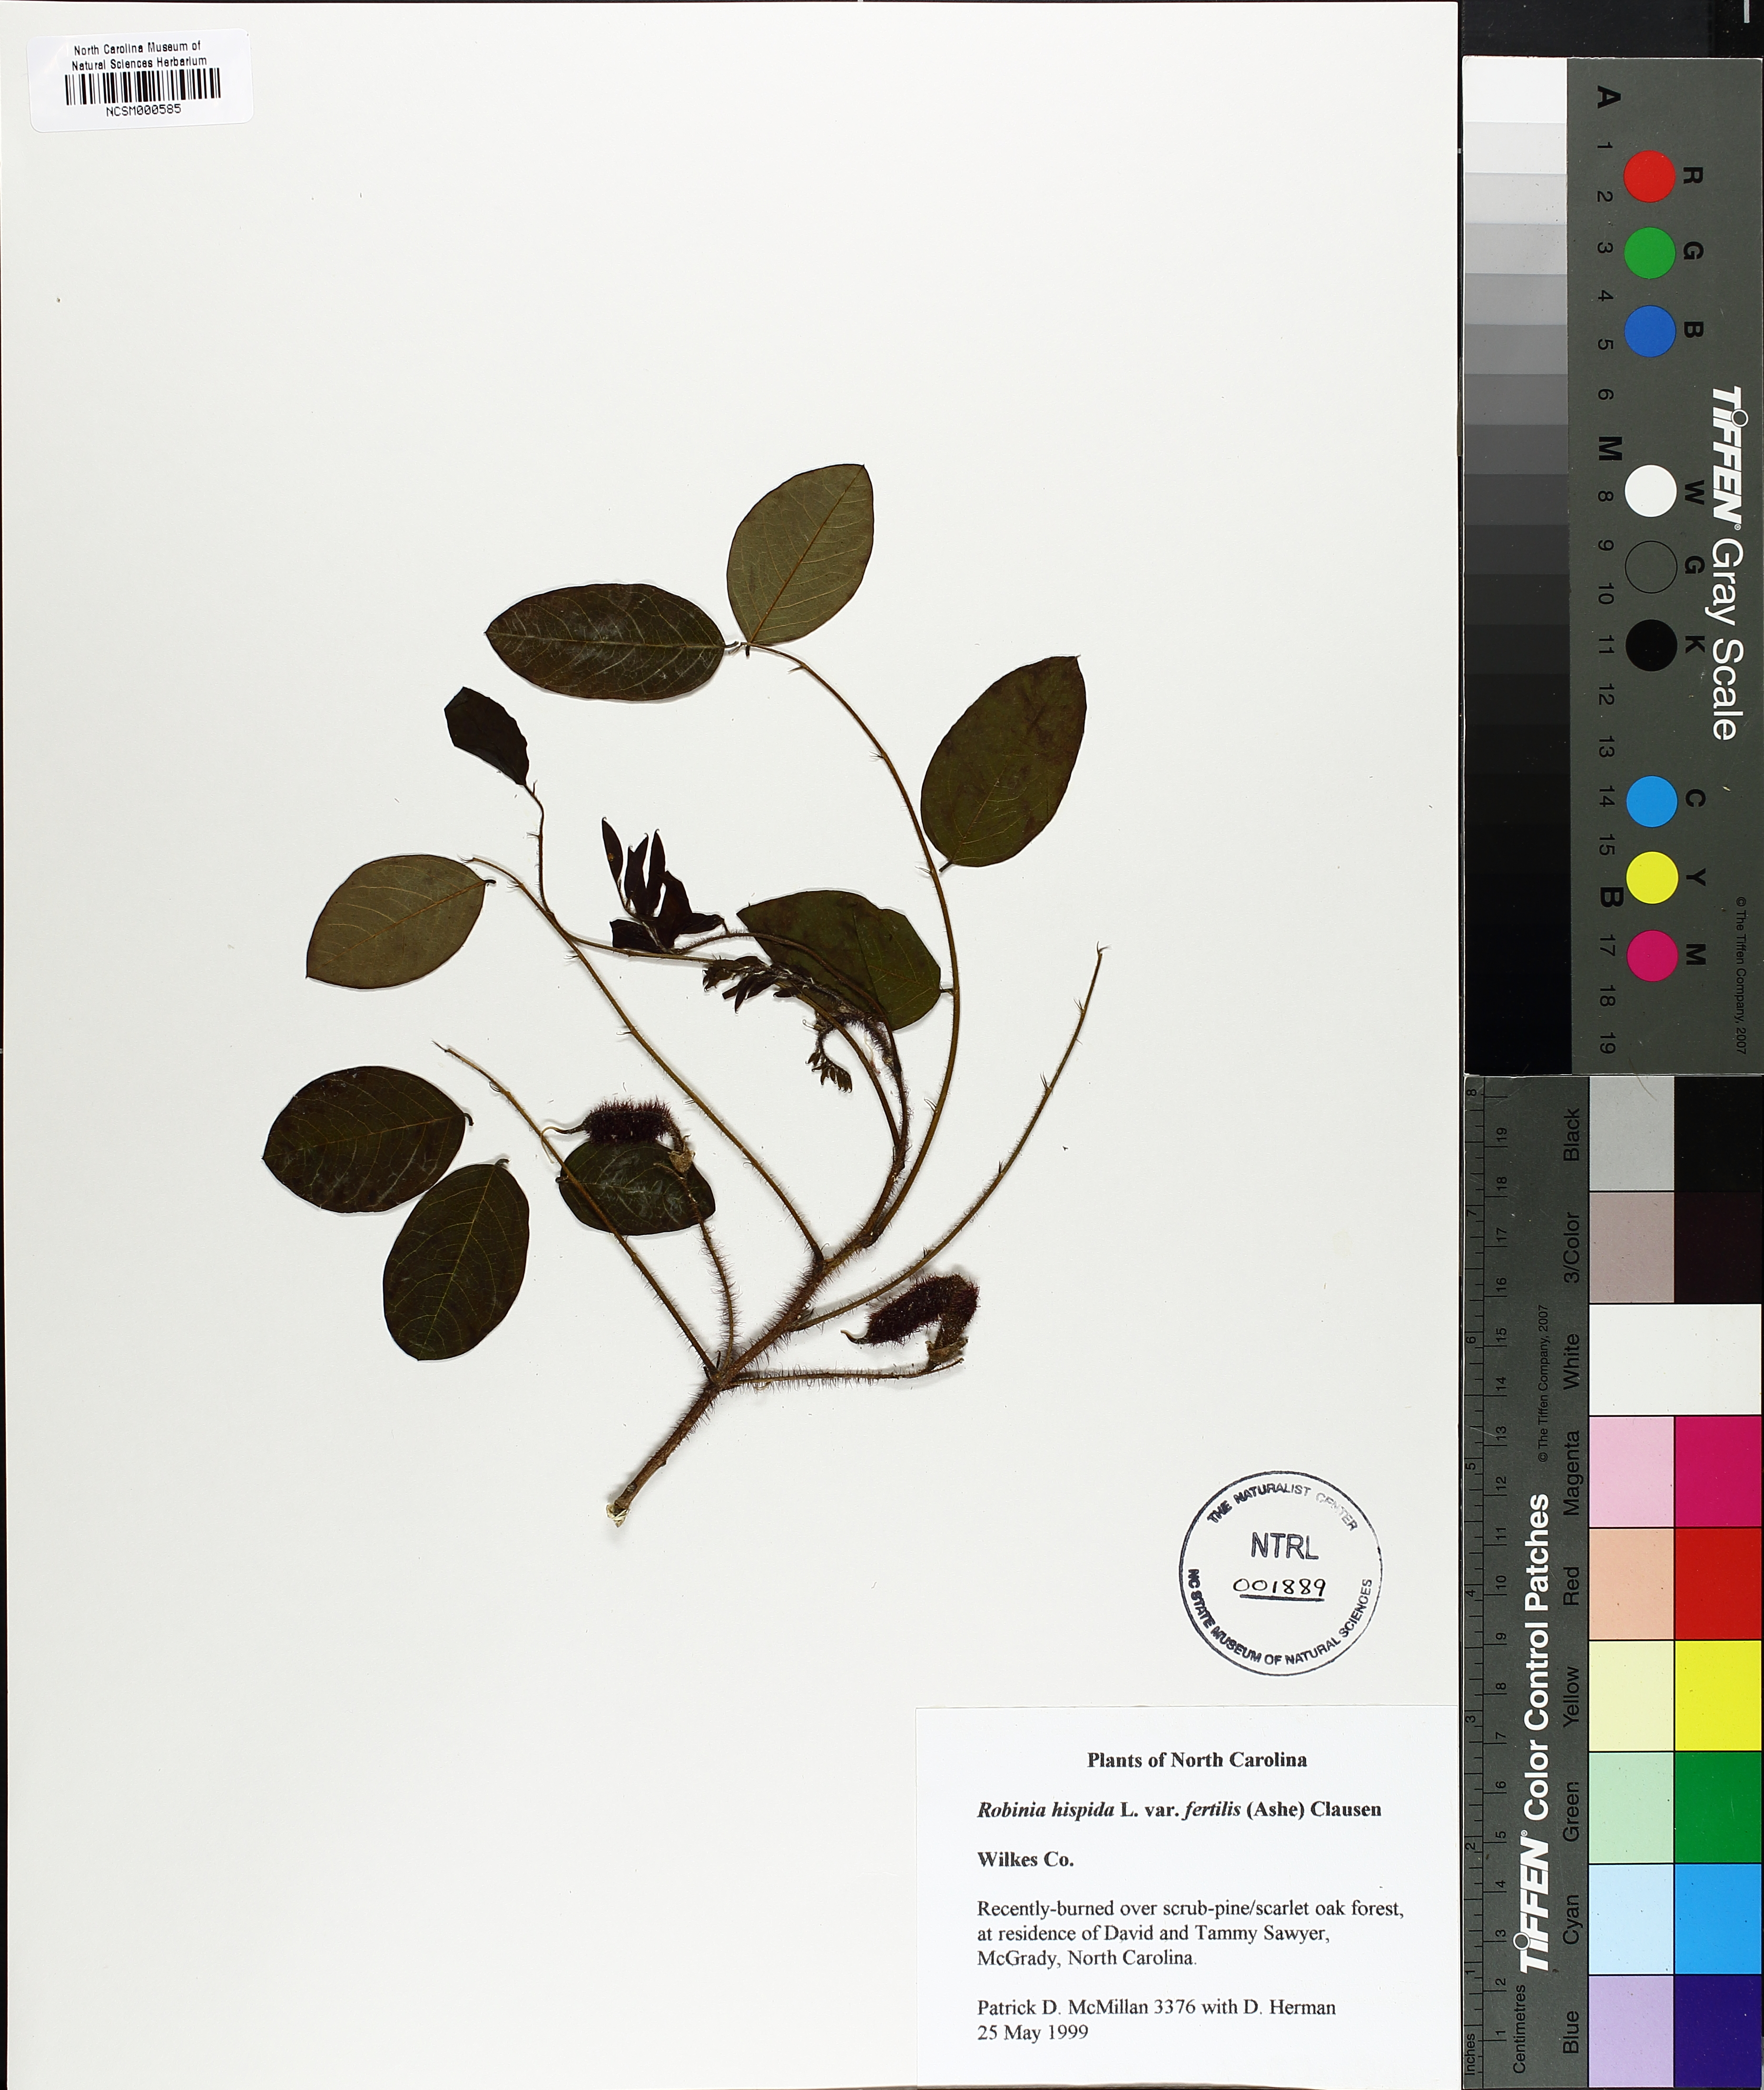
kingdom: Plantae
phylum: Tracheophyta
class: Magnoliopsida
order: Fabales
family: Fabaceae
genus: Robinia
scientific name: Robinia hispida
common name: Bristly locust
